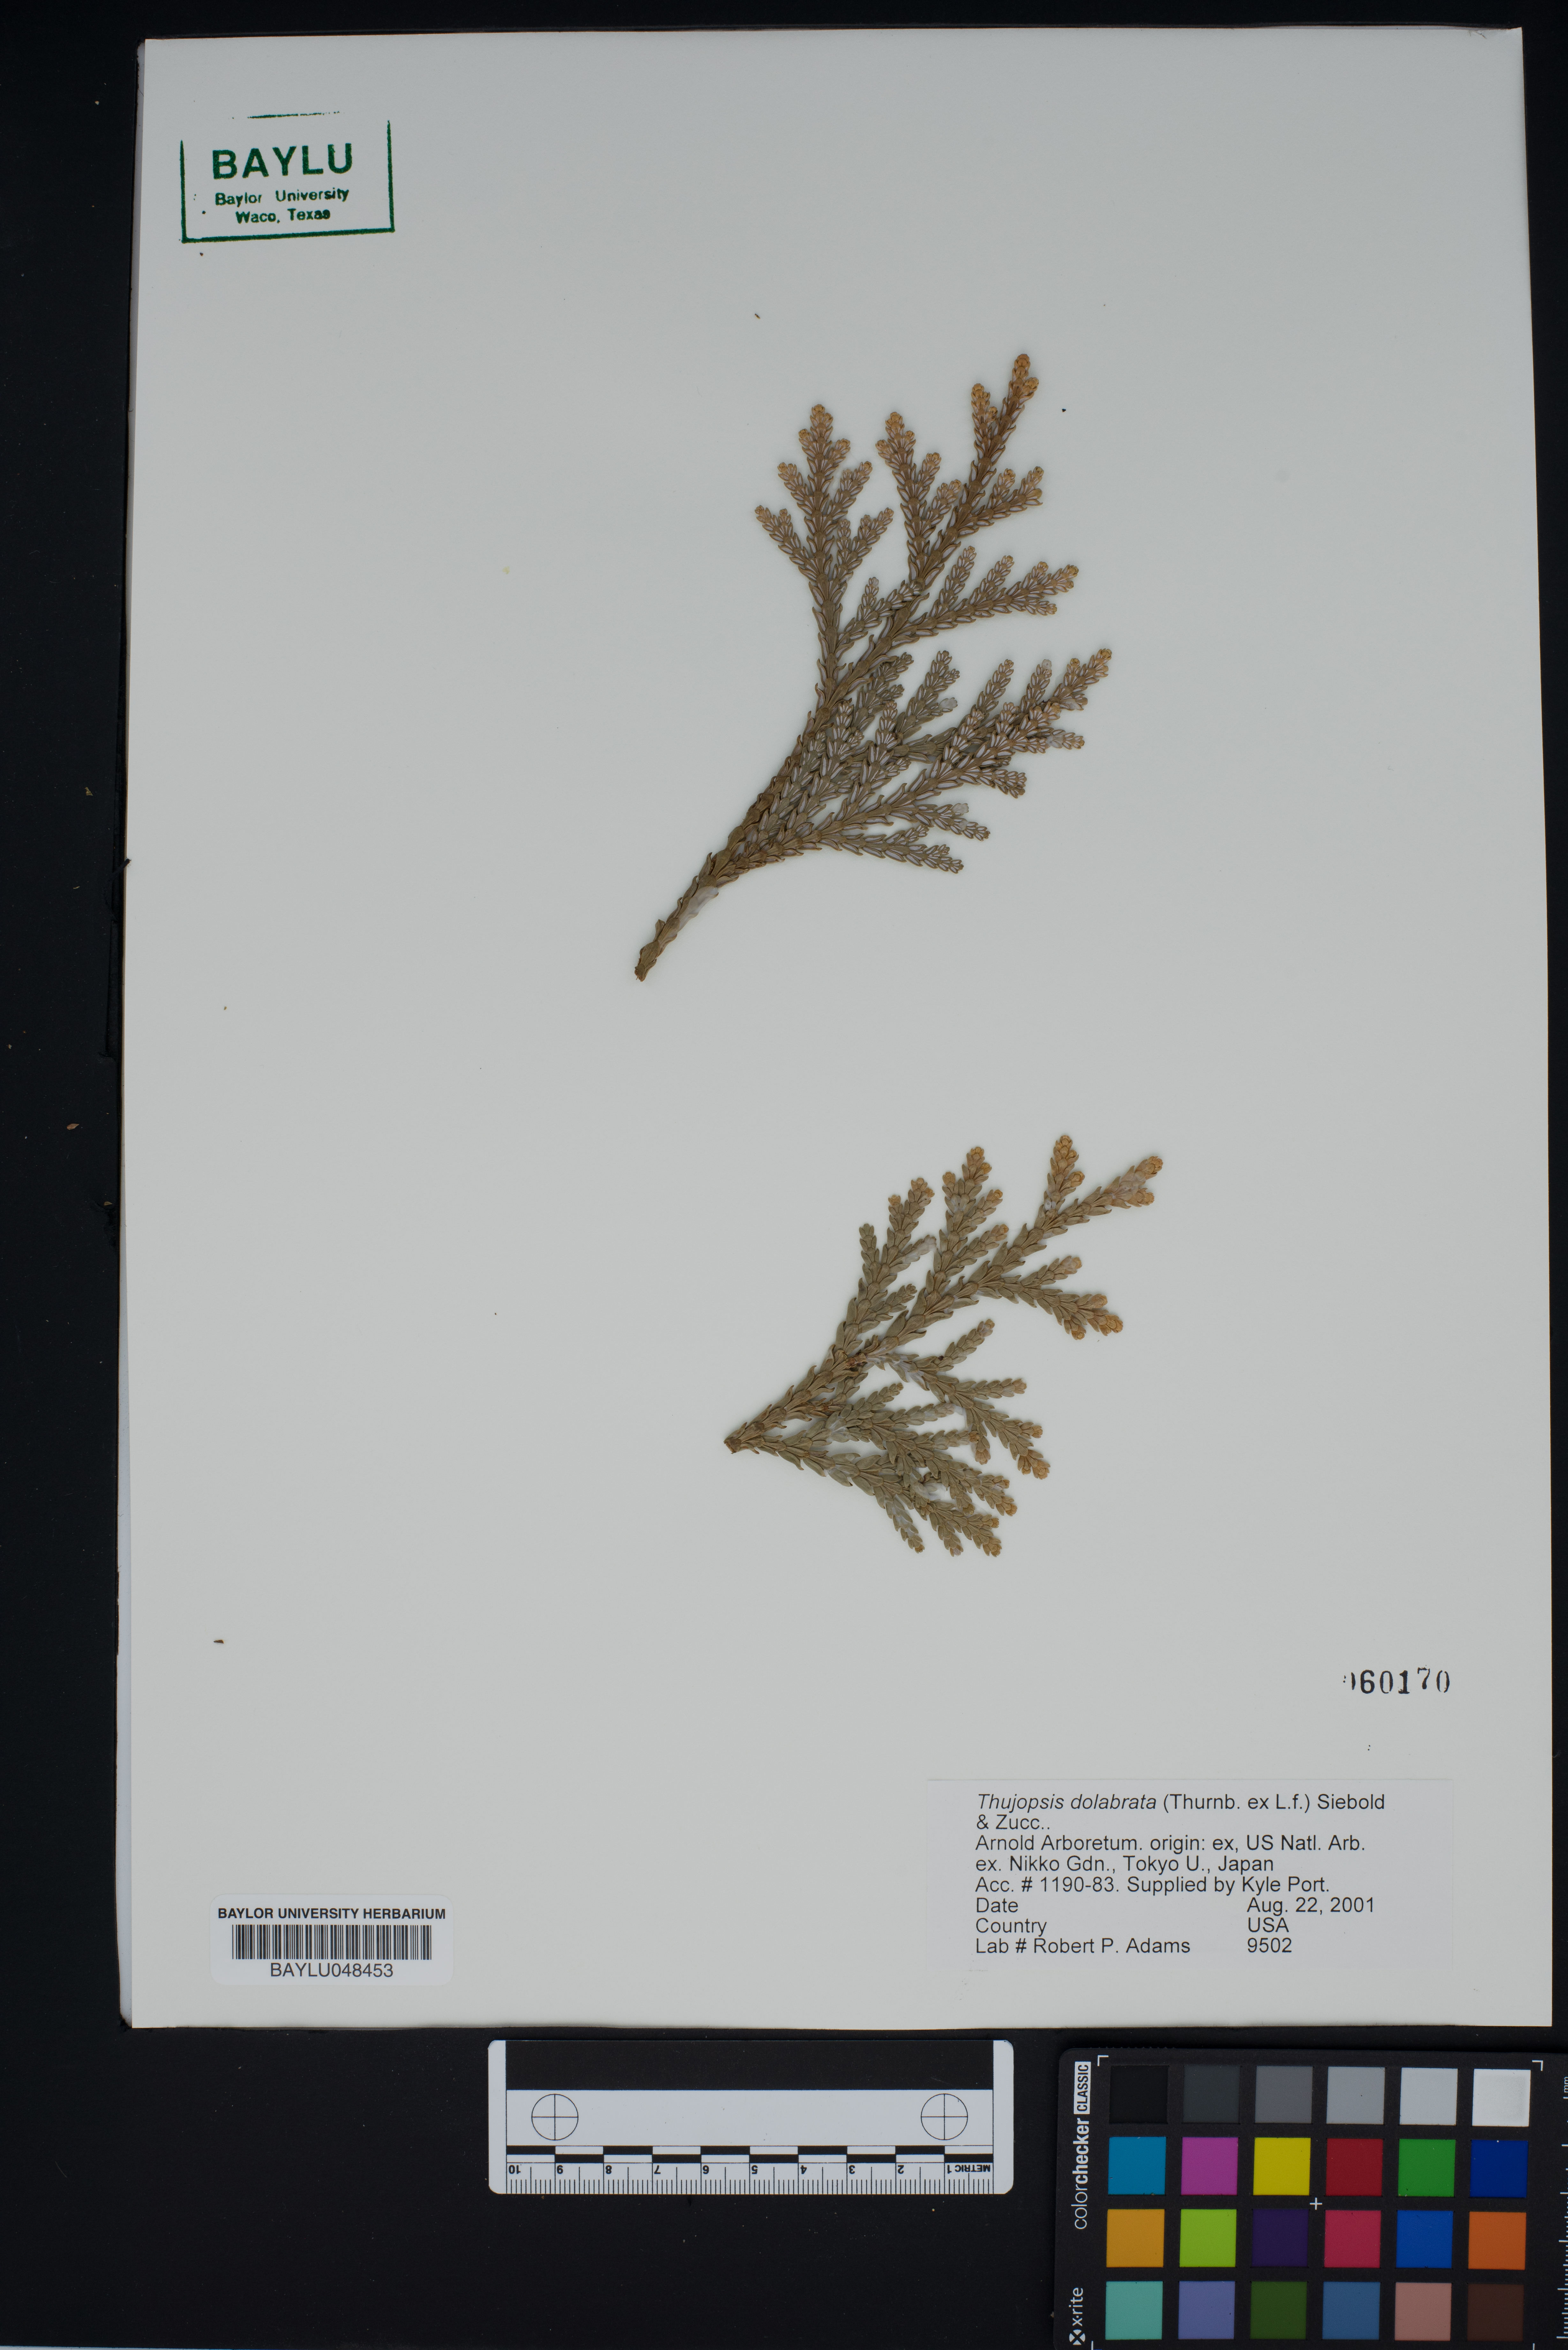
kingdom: Plantae
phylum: Tracheophyta
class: Pinopsida
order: Pinales
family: Cupressaceae
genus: Thujopsis
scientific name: Thujopsis dolabrata
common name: Hiba
